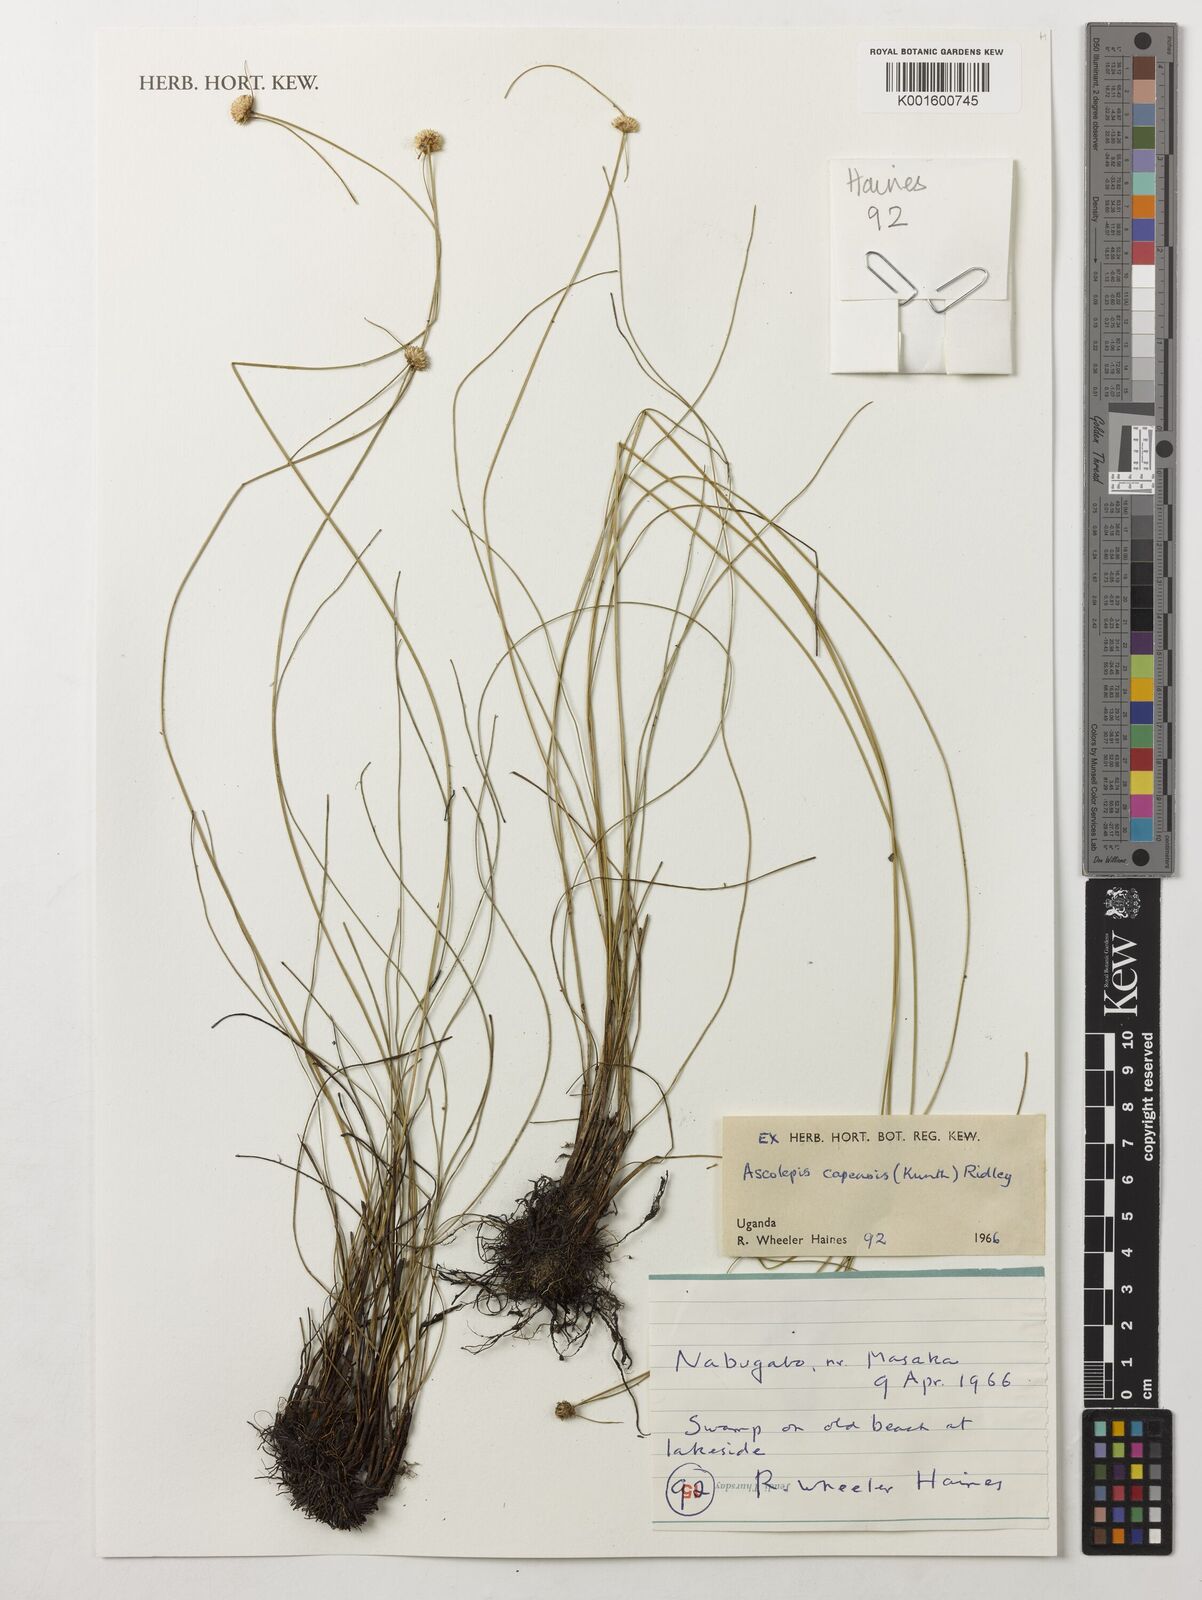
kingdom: Plantae
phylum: Tracheophyta
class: Liliopsida
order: Poales
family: Cyperaceae
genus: Cyperus
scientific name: Cyperus ascocapensis
